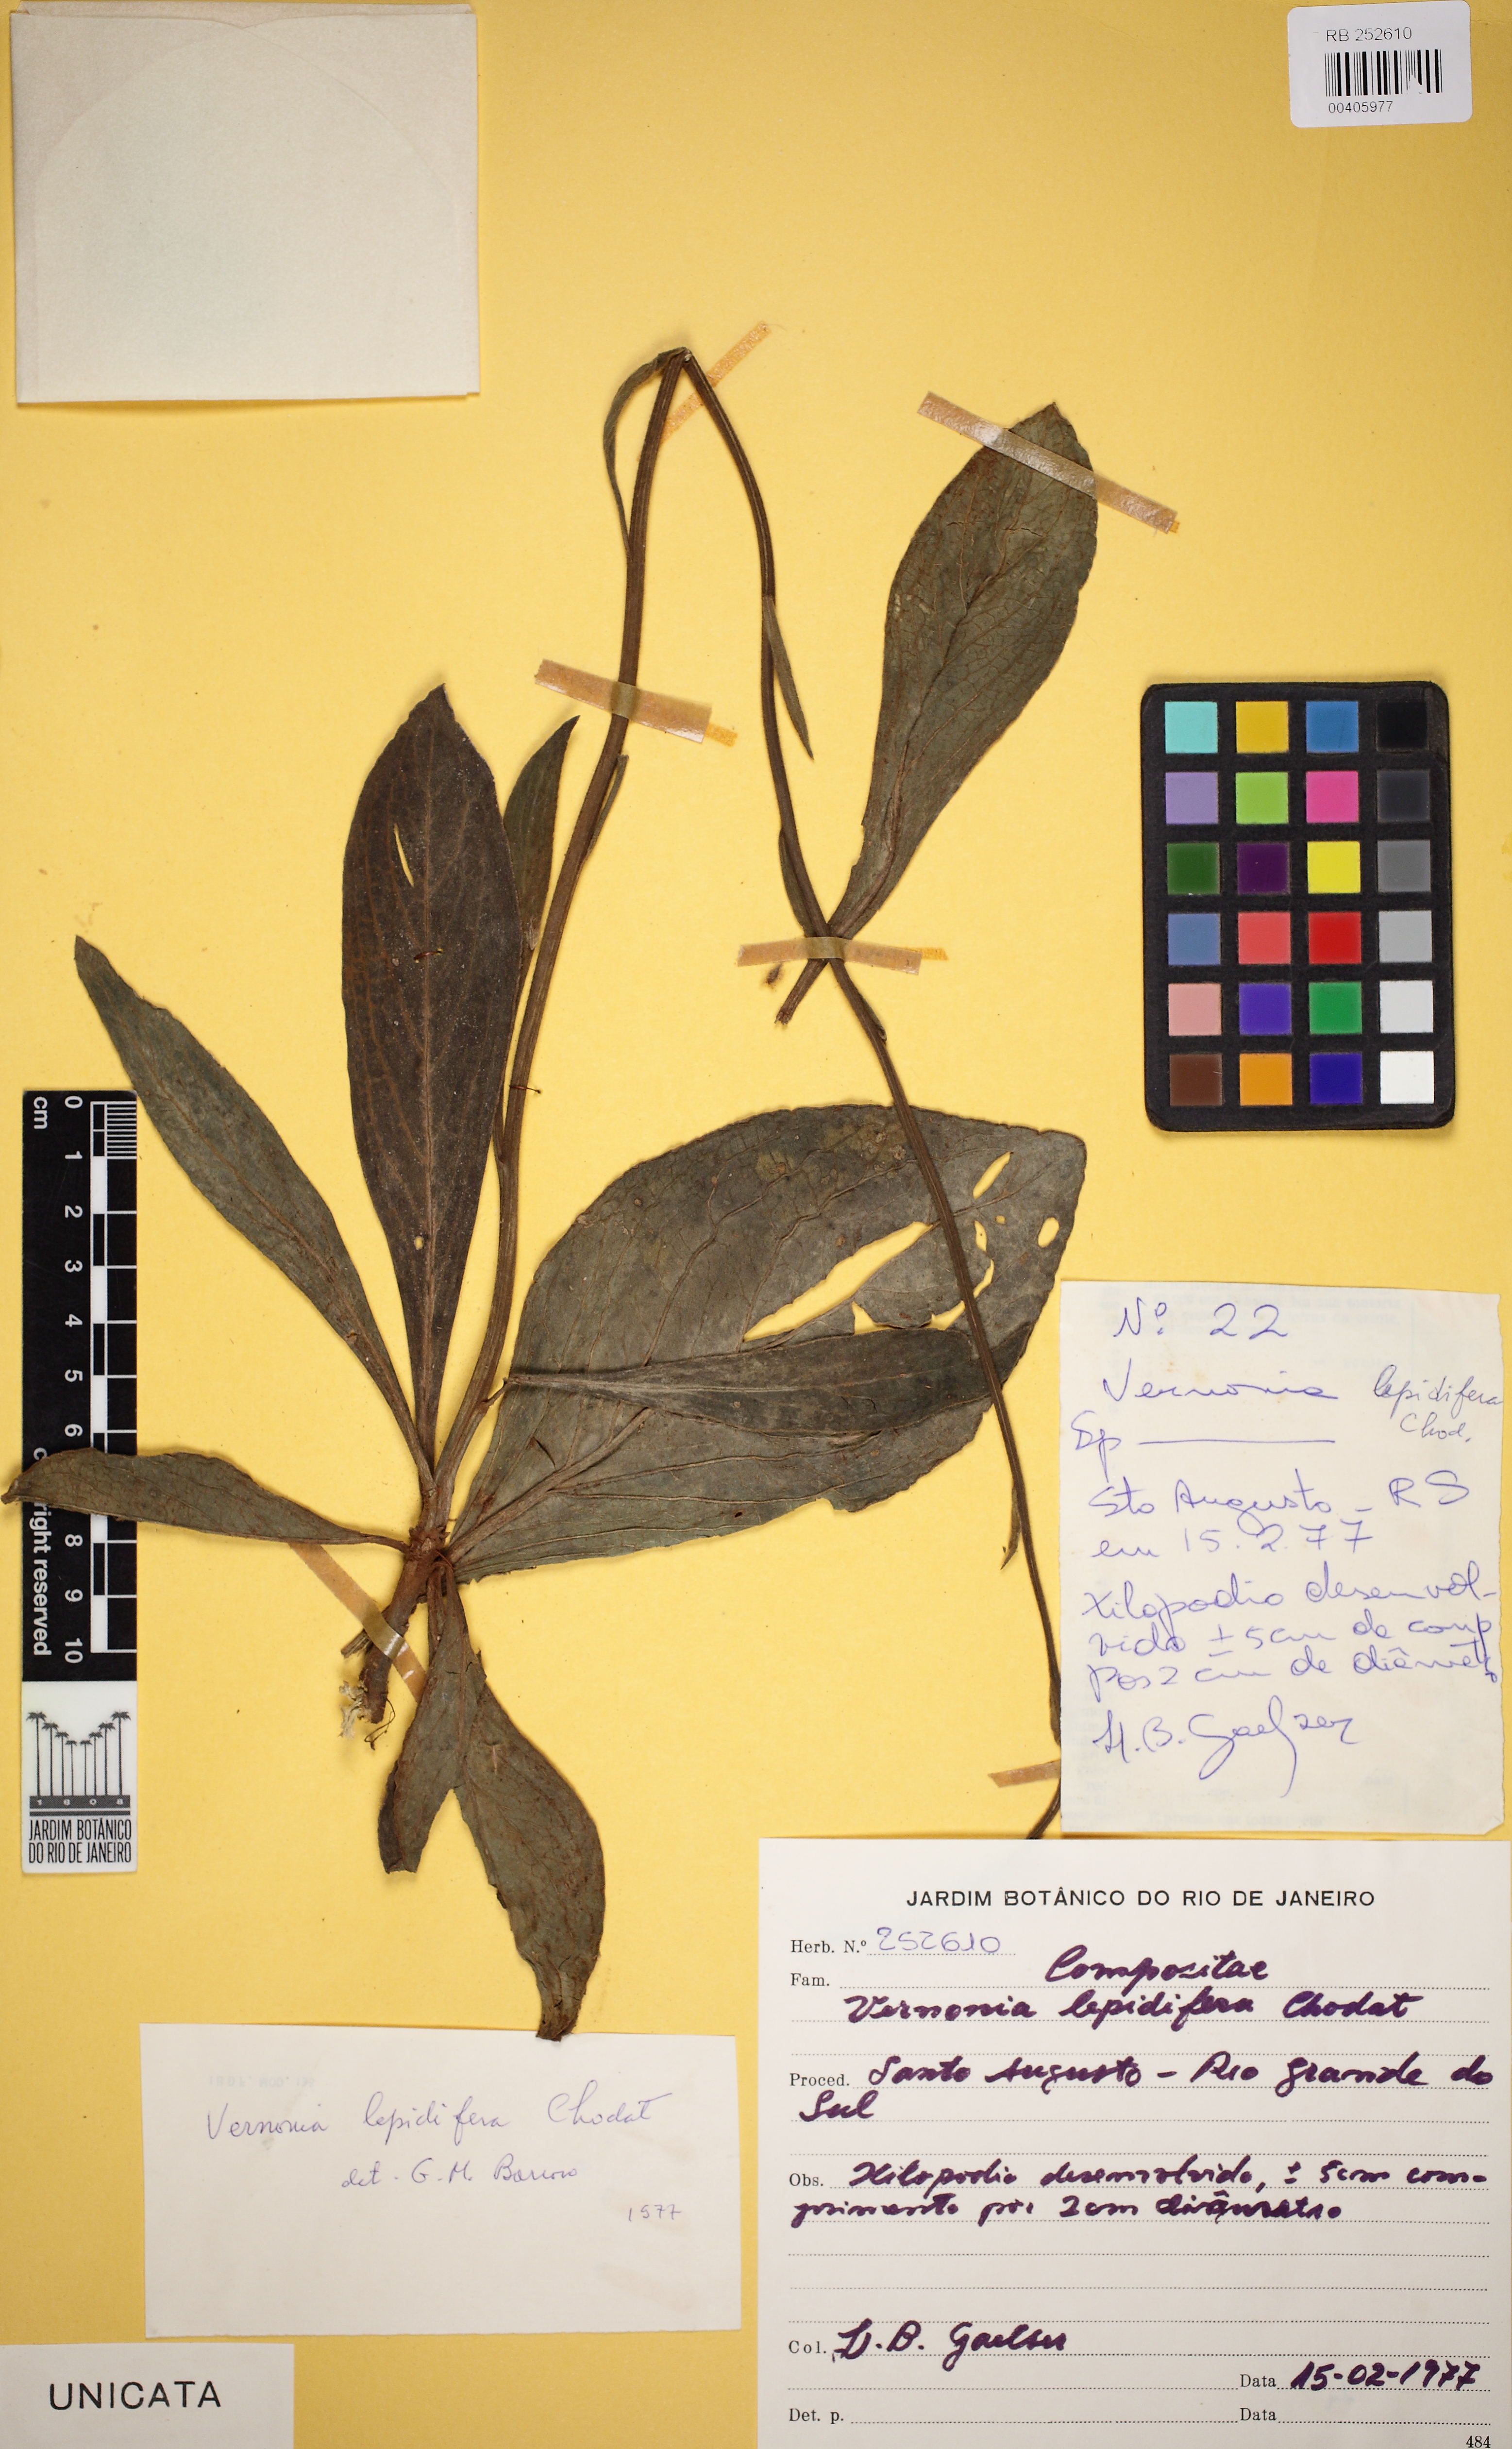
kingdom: Plantae
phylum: Tracheophyta
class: Magnoliopsida
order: Asterales
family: Asteraceae
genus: Chrysolaena
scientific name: Chrysolaena propinqua
